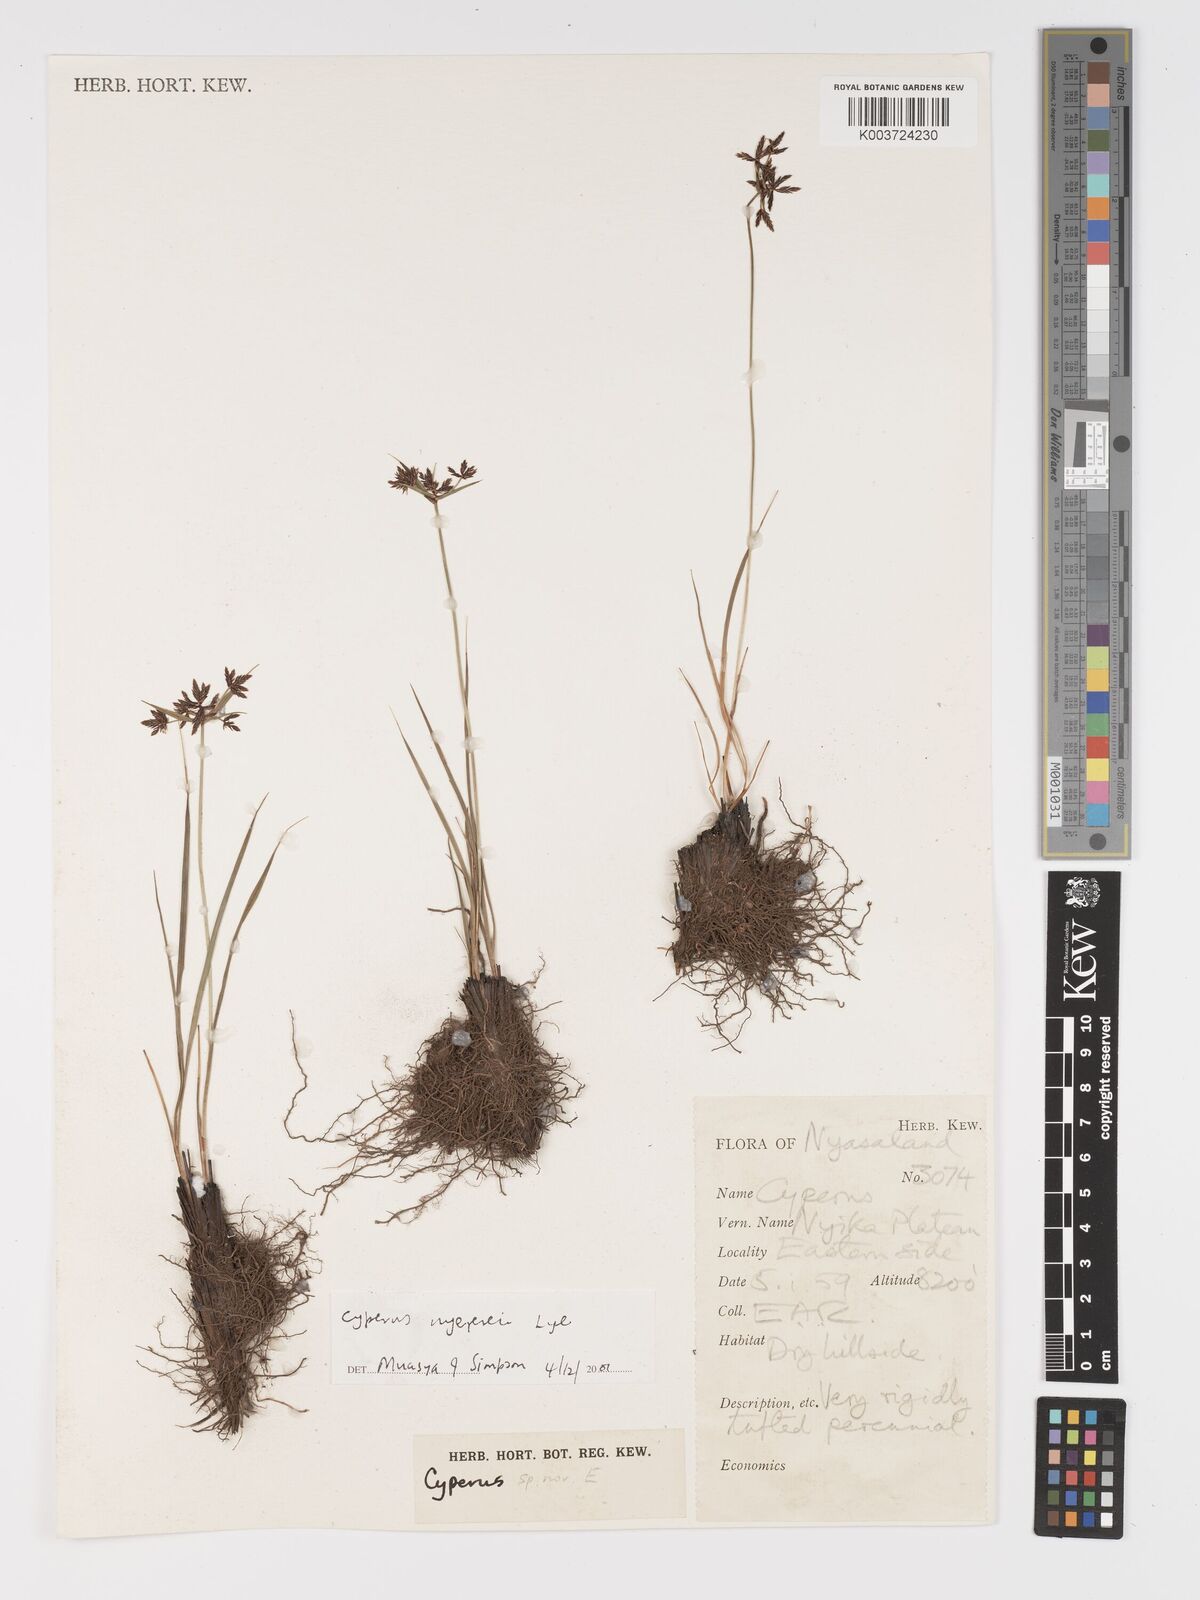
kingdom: Plantae
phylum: Tracheophyta
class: Liliopsida
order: Poales
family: Cyperaceae
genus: Cyperus
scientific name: Cyperus nyererei
